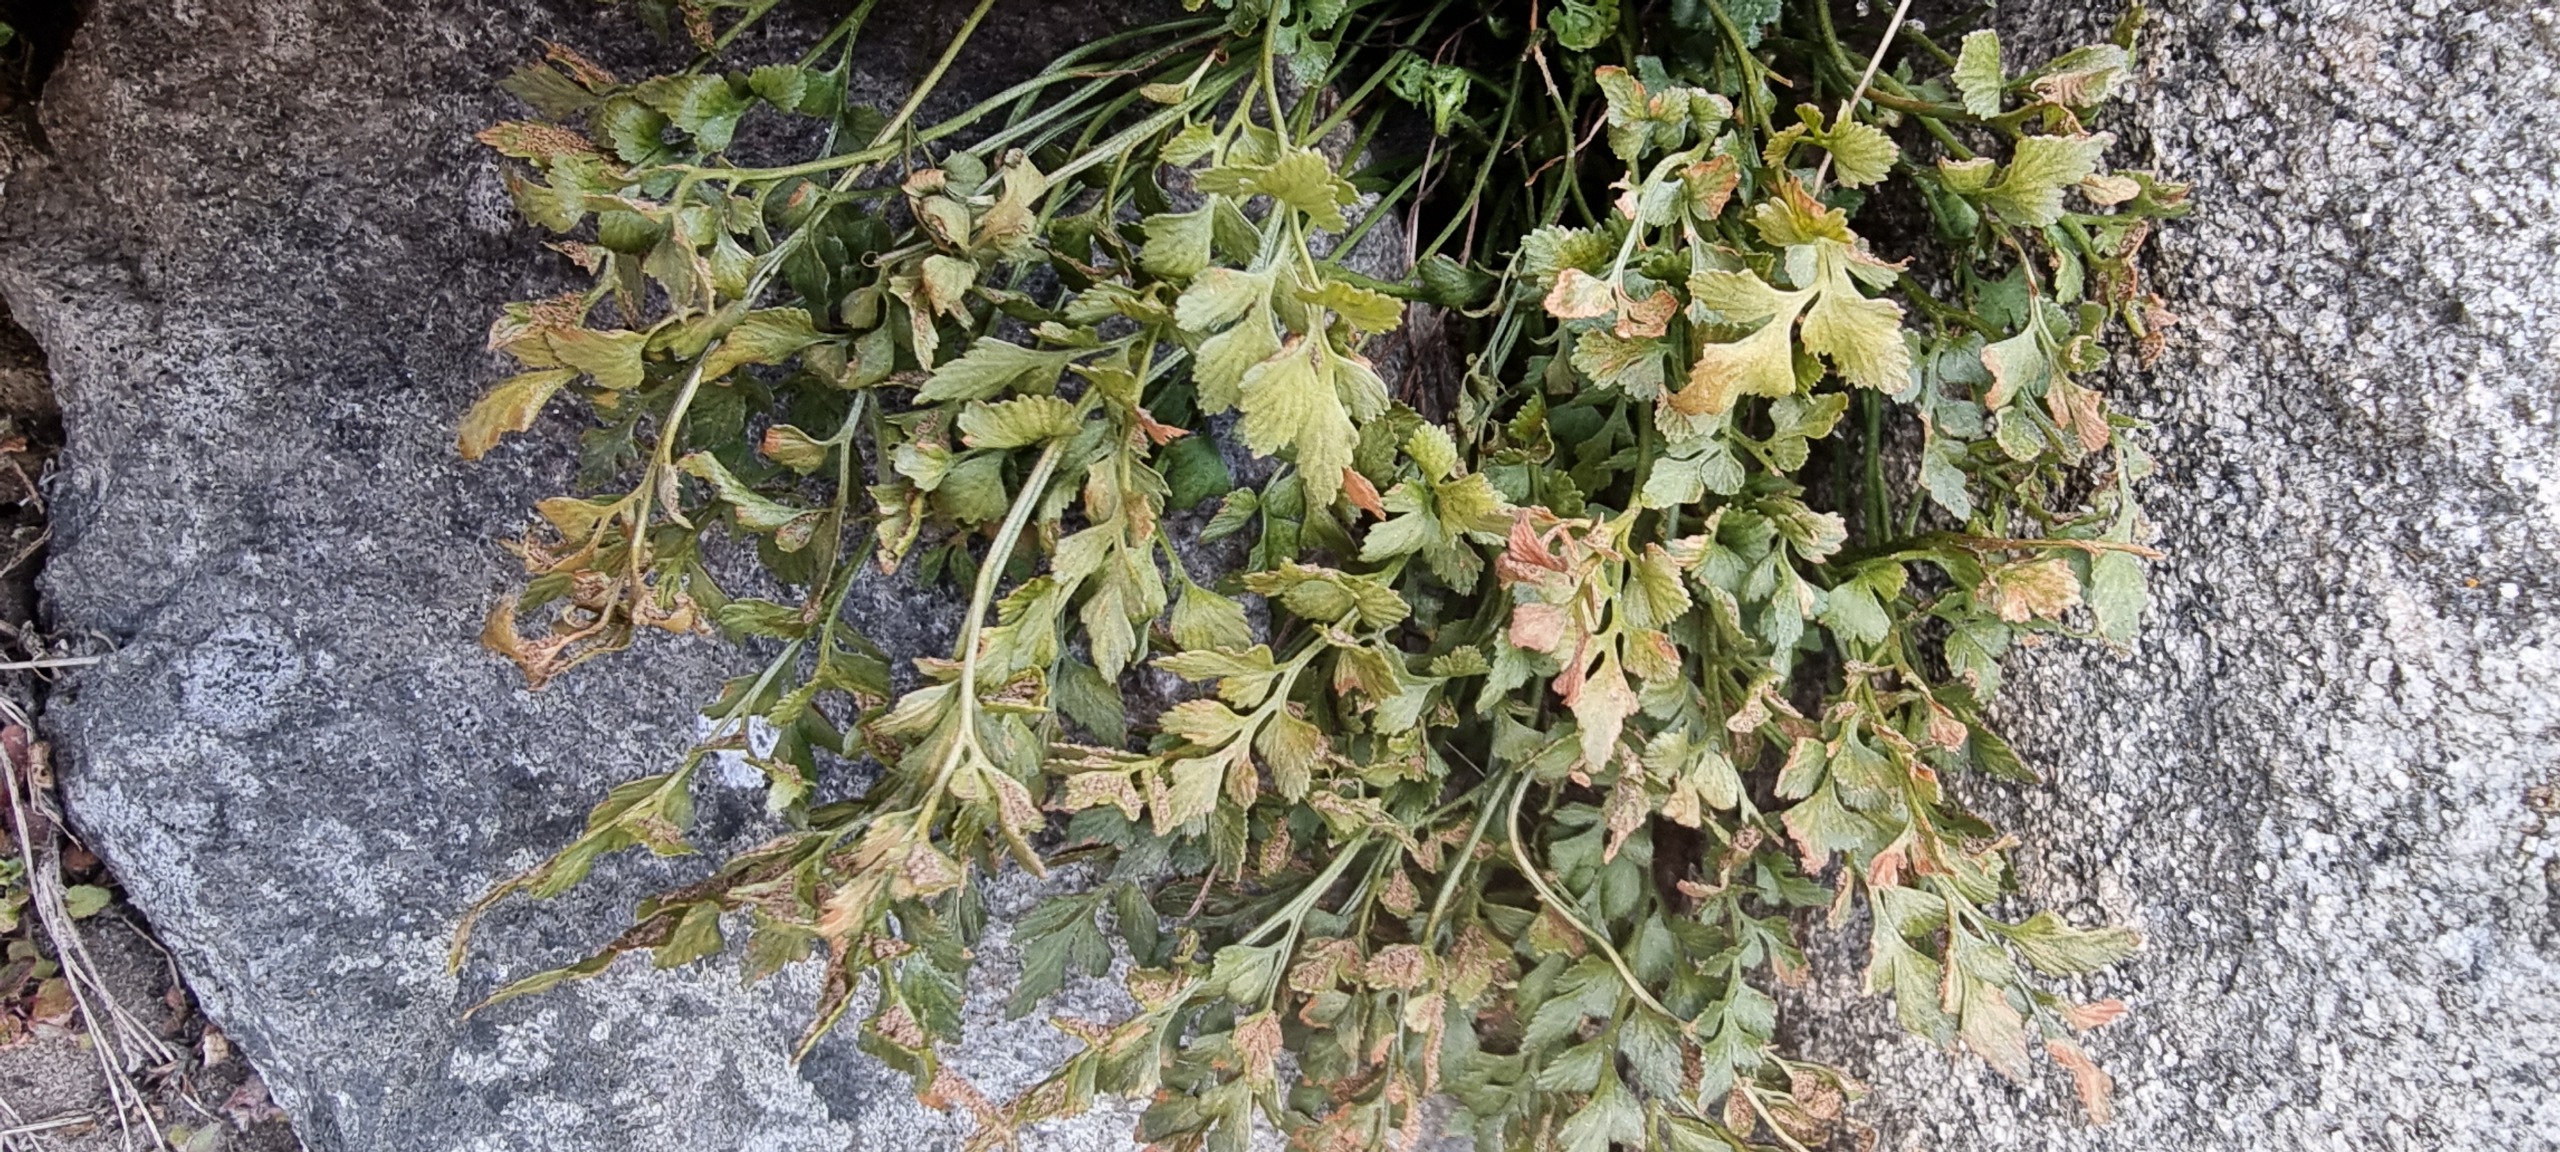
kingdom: Plantae
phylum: Tracheophyta
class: Polypodiopsida
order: Polypodiales
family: Aspleniaceae
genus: Asplenium
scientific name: Asplenium ruta-muraria
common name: Murrude
